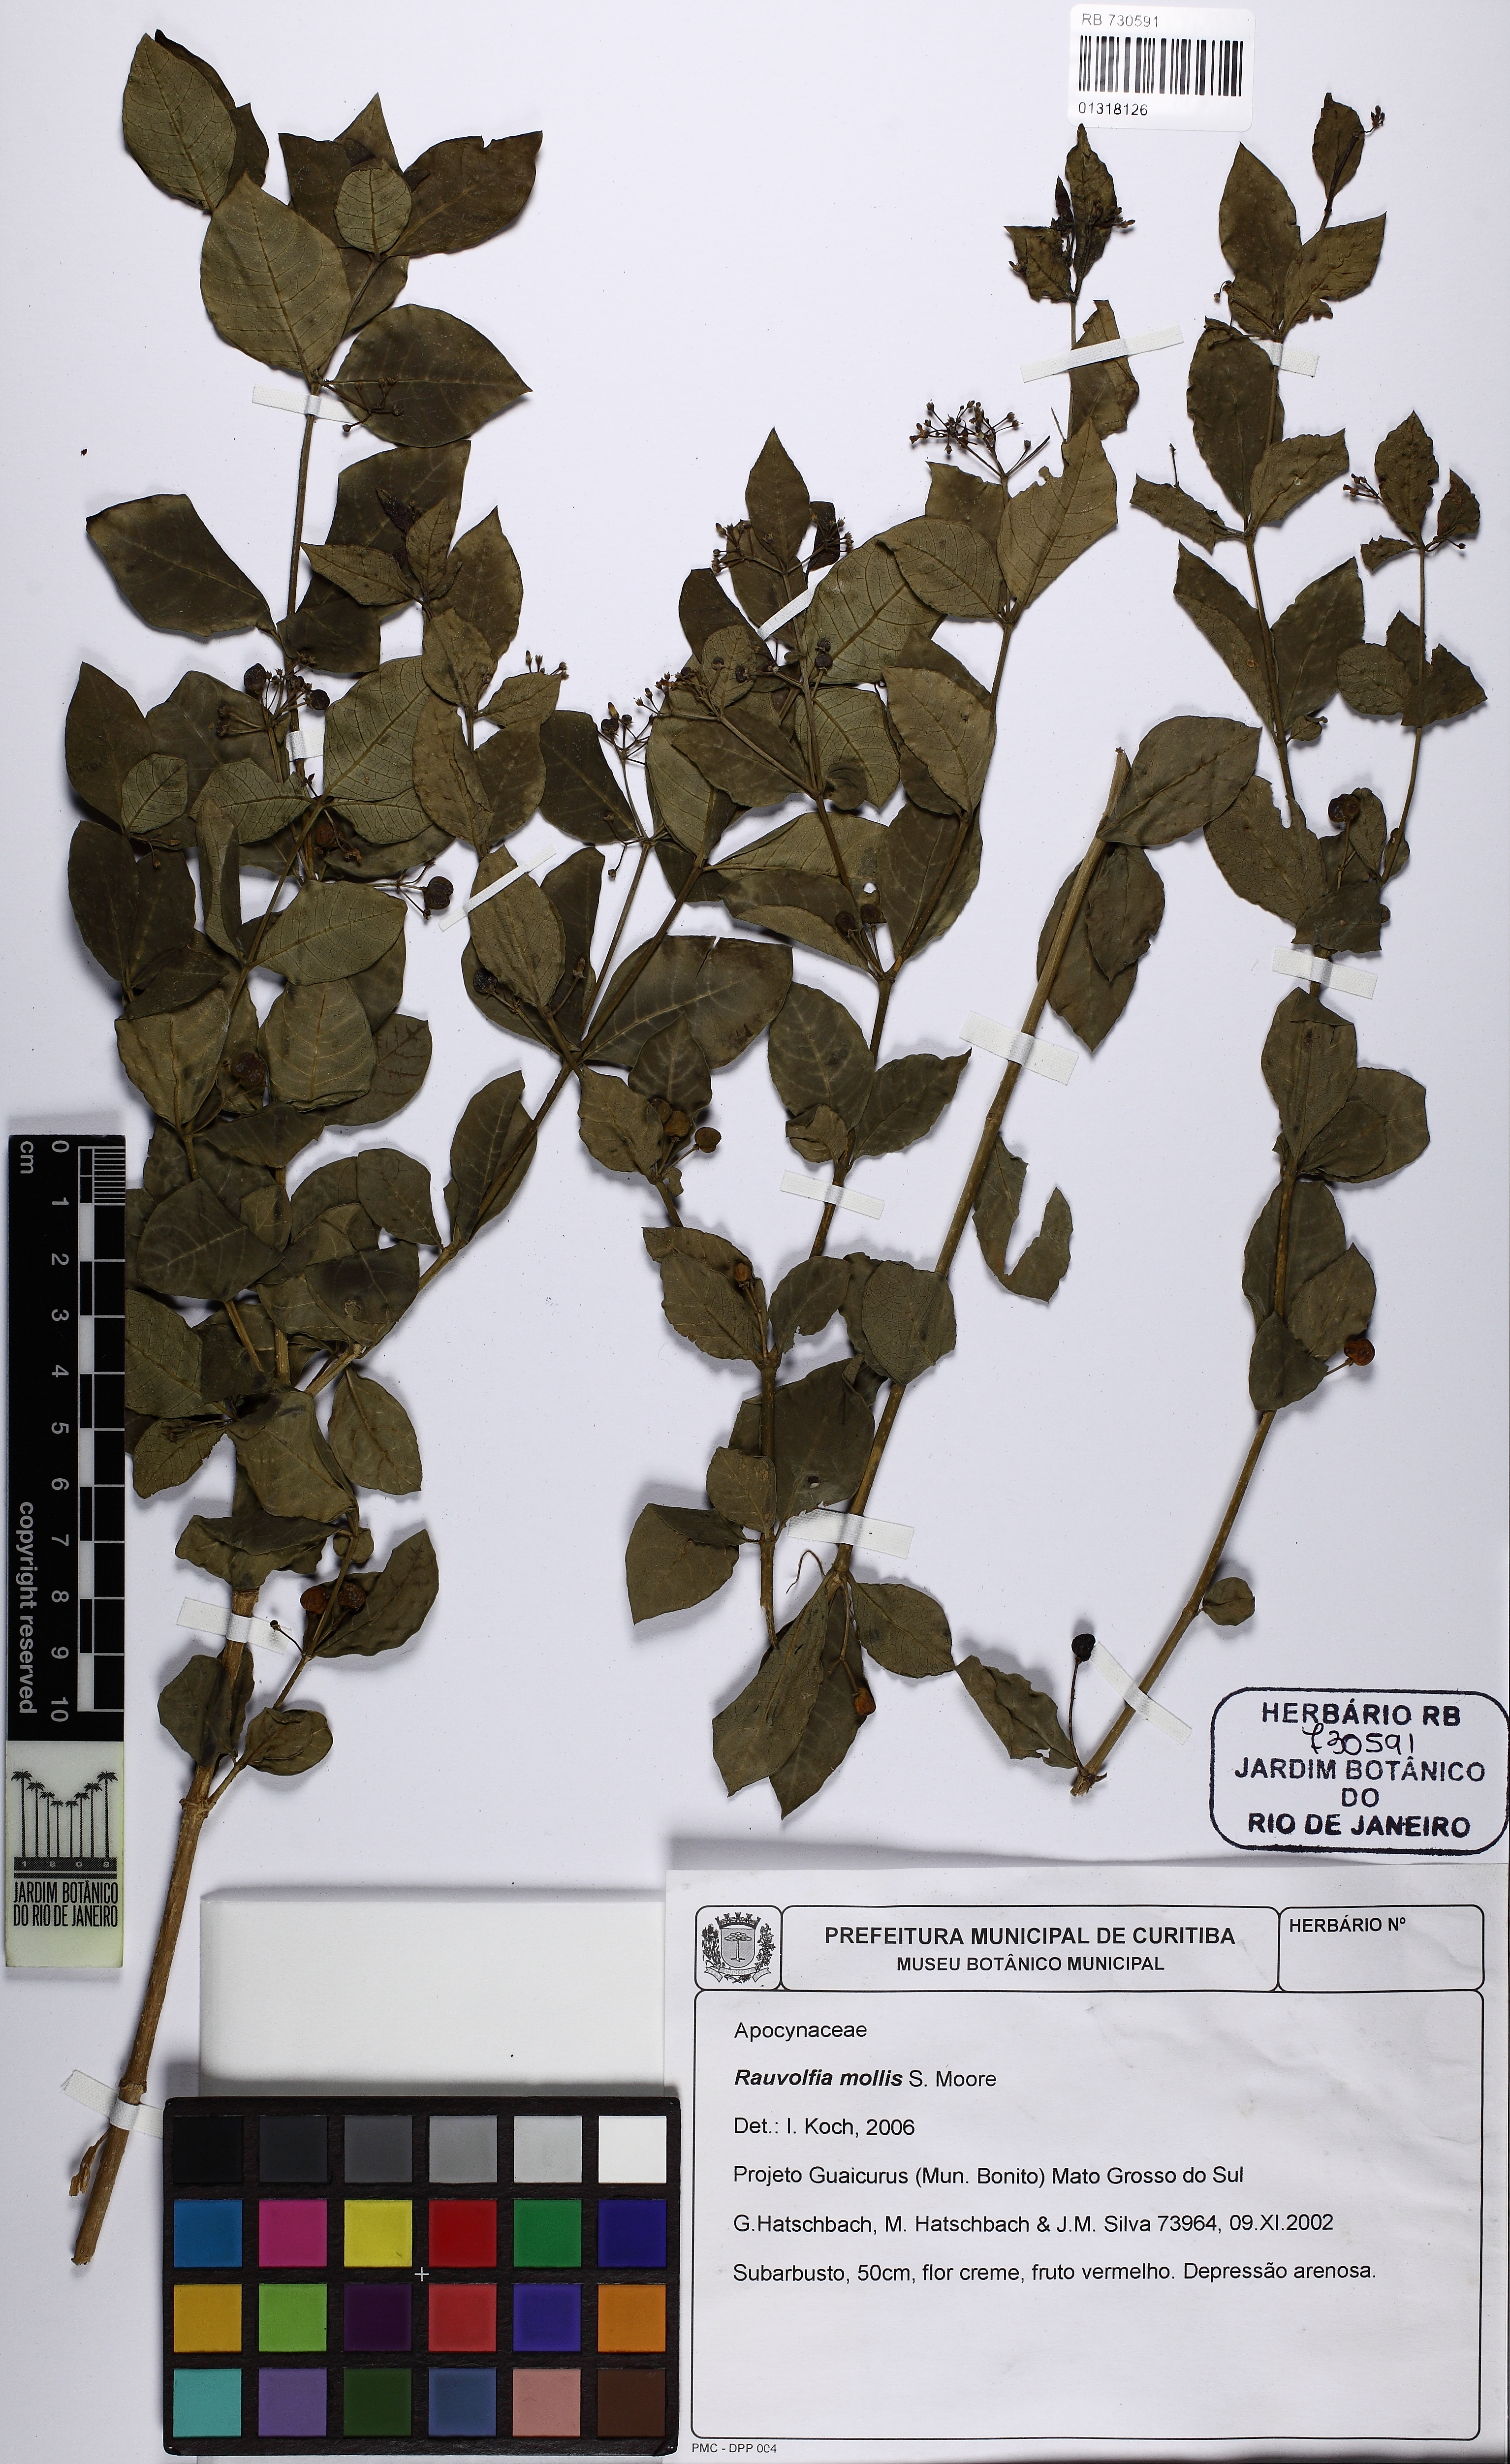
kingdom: Plantae
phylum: Tracheophyta
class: Magnoliopsida
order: Gentianales
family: Apocynaceae
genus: Rauvolfia
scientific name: Rauvolfia ligustrina
